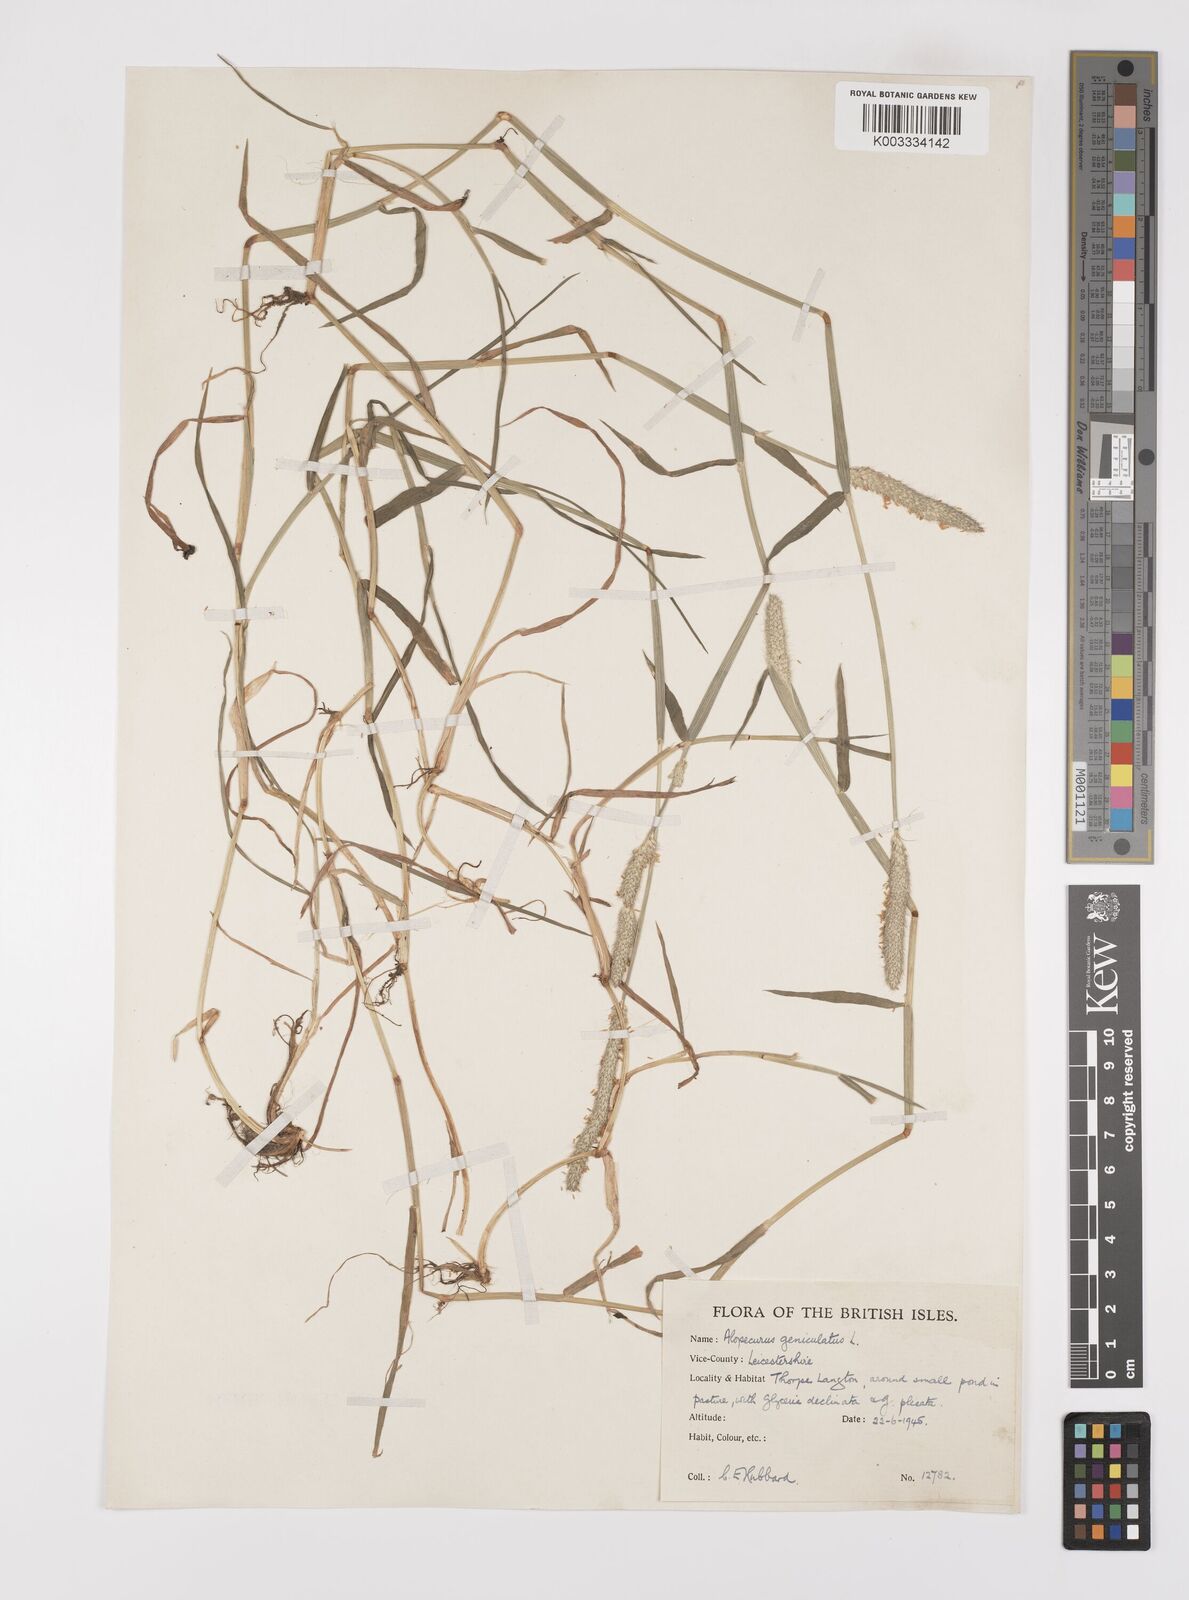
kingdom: Plantae
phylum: Tracheophyta
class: Liliopsida
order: Poales
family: Poaceae
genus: Alopecurus
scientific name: Alopecurus geniculatus
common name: Water foxtail
